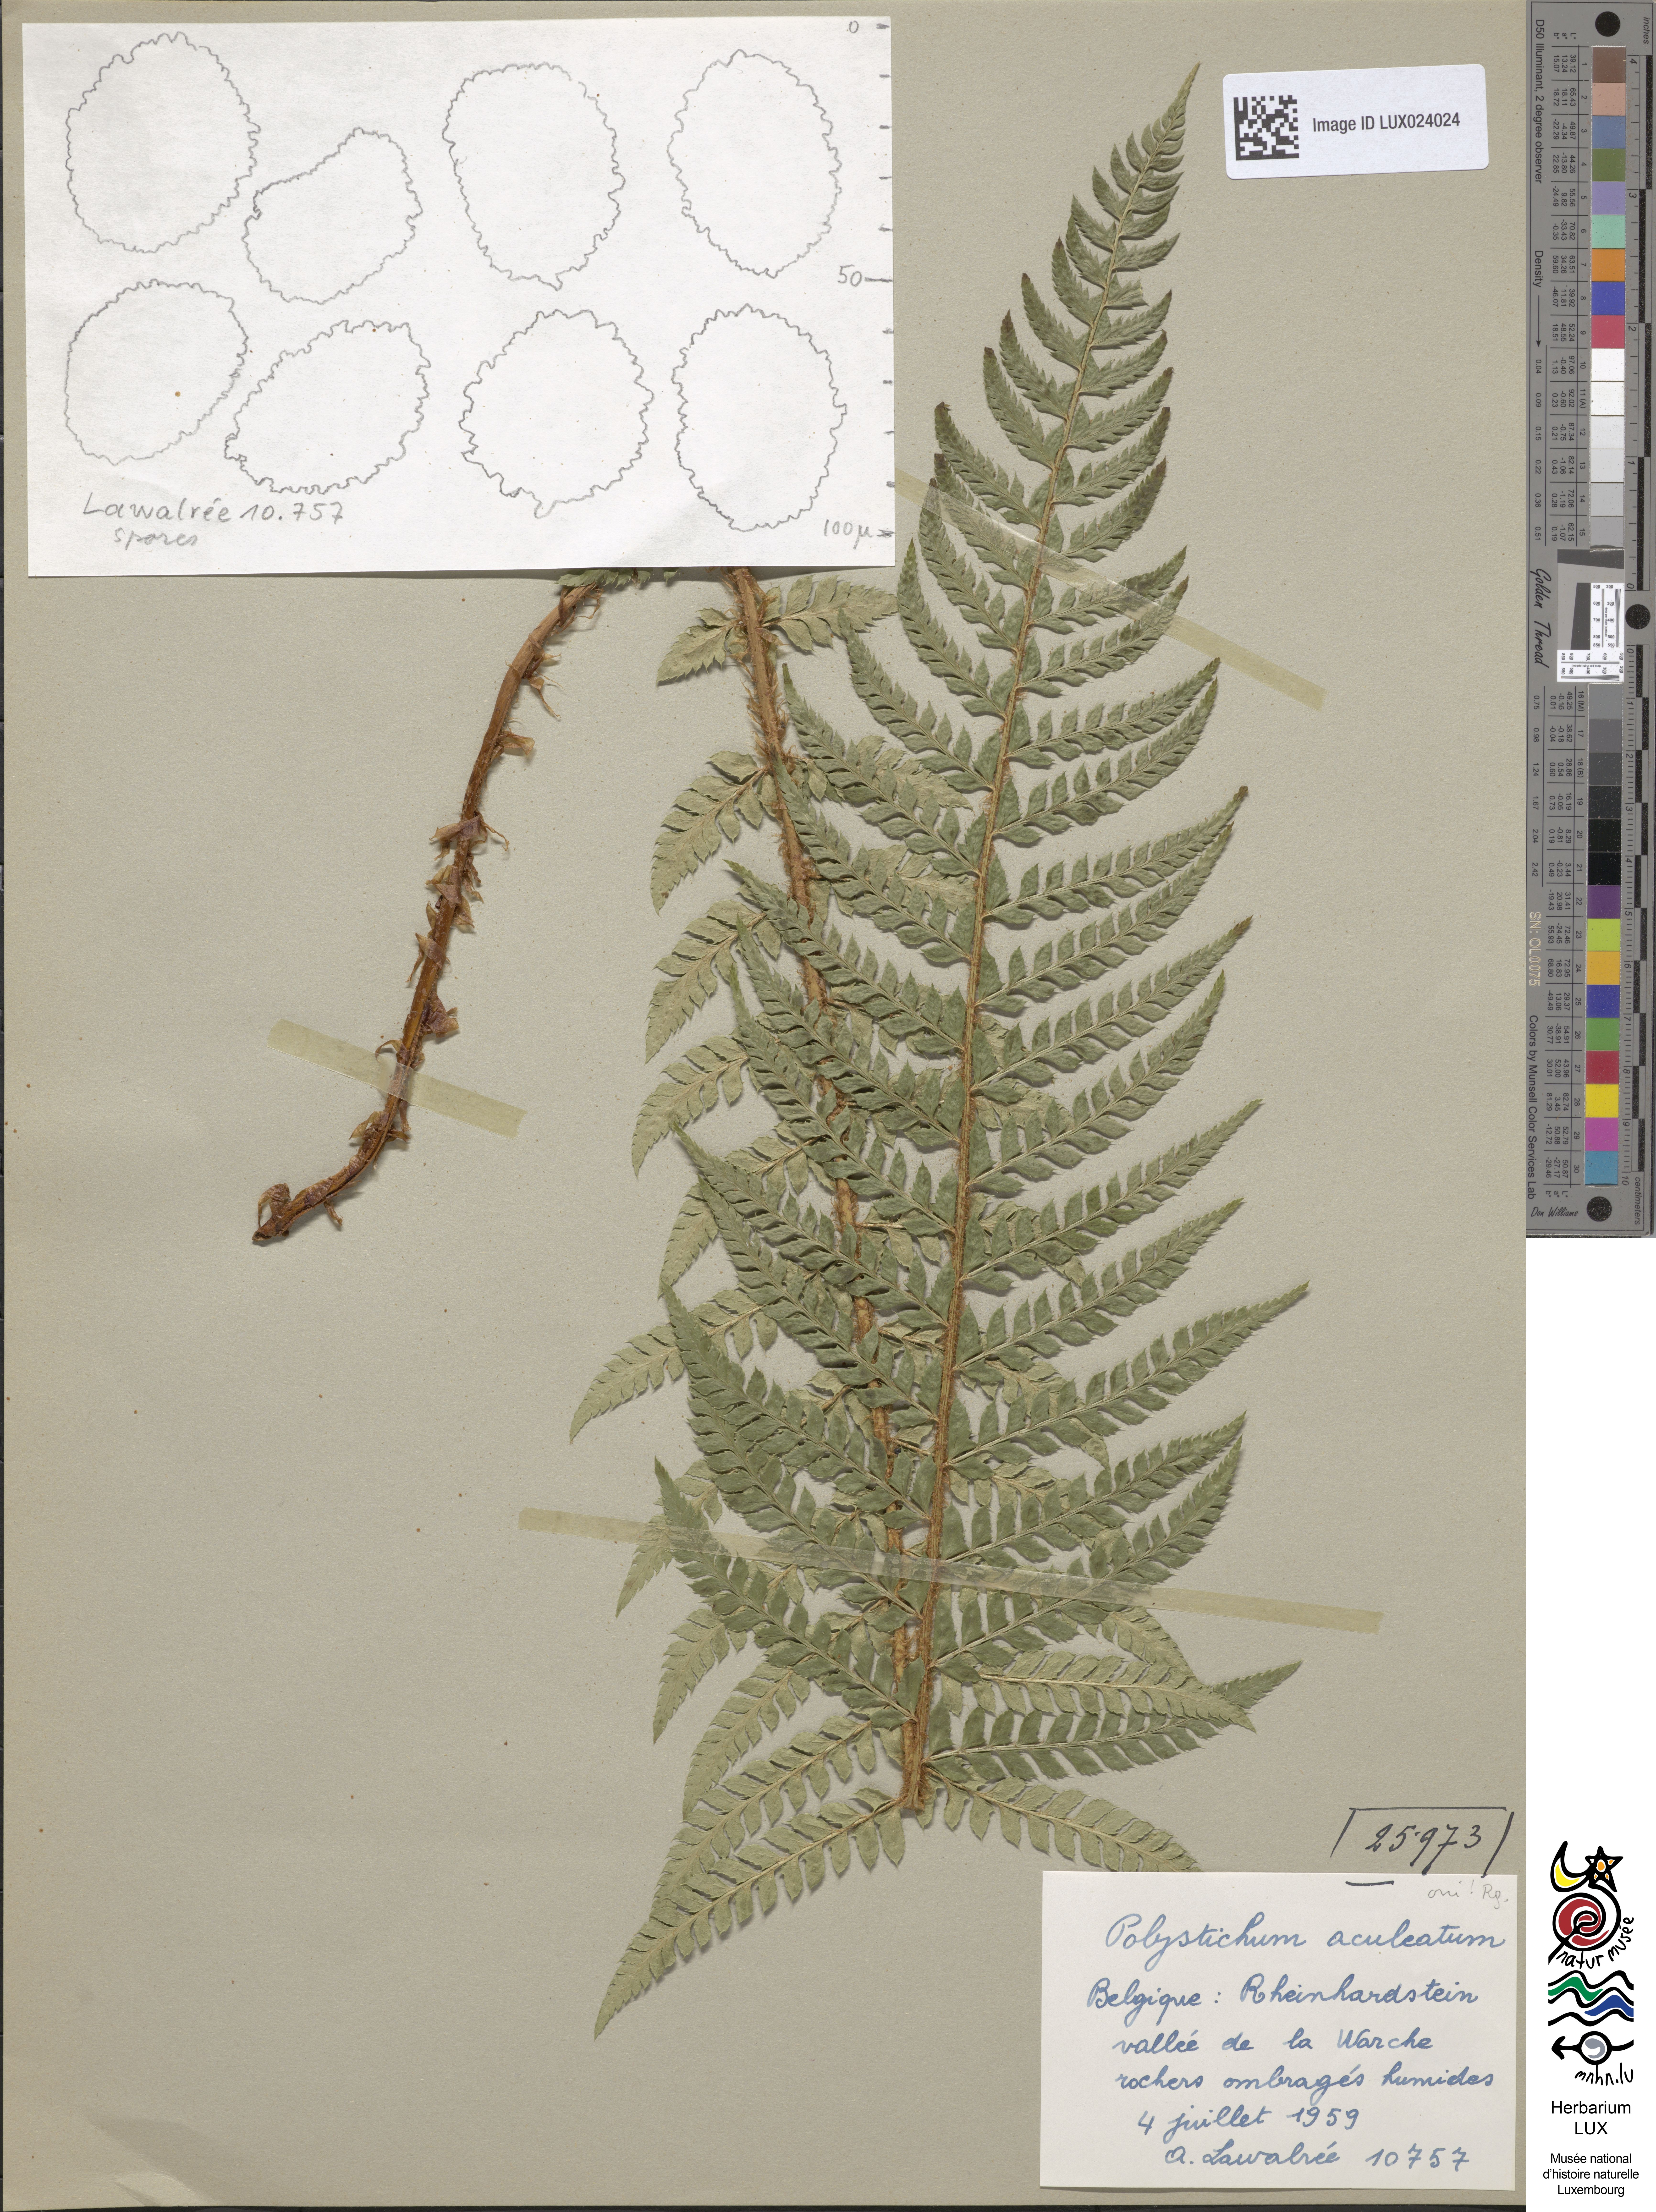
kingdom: Plantae
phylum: Tracheophyta
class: Polypodiopsida
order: Polypodiales
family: Dryopteridaceae
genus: Polystichum
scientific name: Polystichum aculeatum
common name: Hard shield-fern
